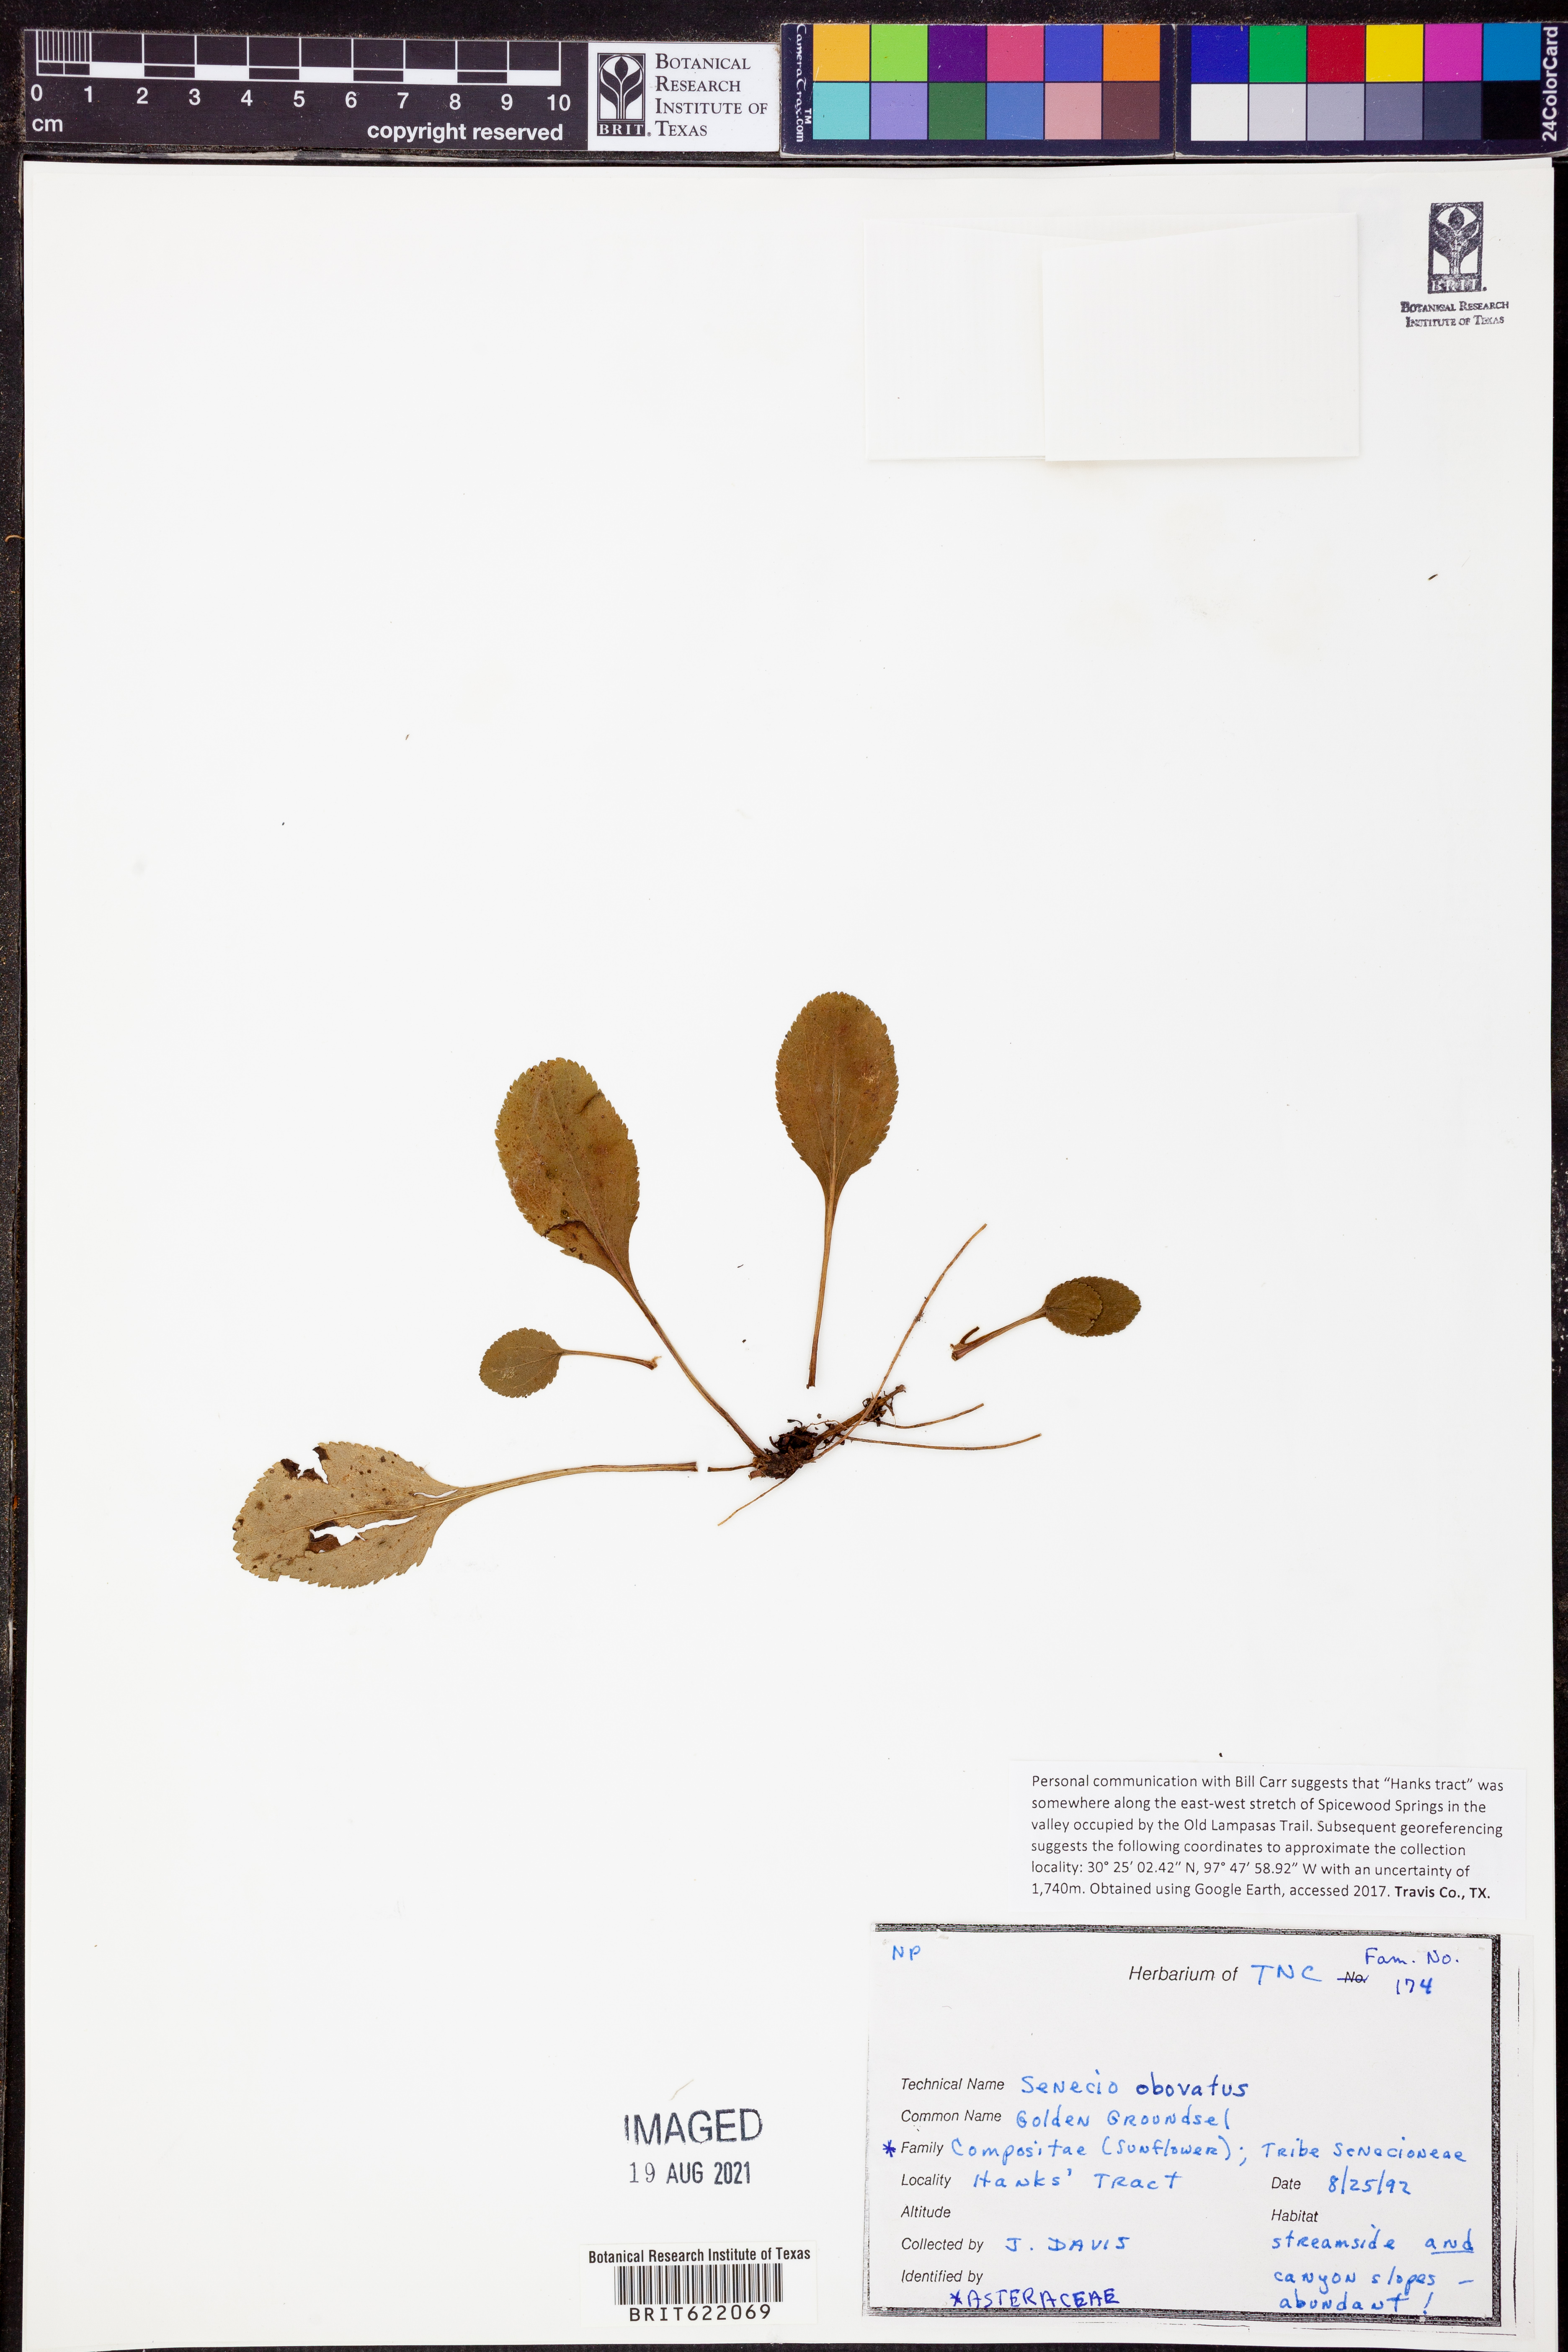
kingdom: Plantae
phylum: Tracheophyta
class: Magnoliopsida
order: Asterales
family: Asteraceae
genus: Senecio
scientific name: Senecio provincialis
